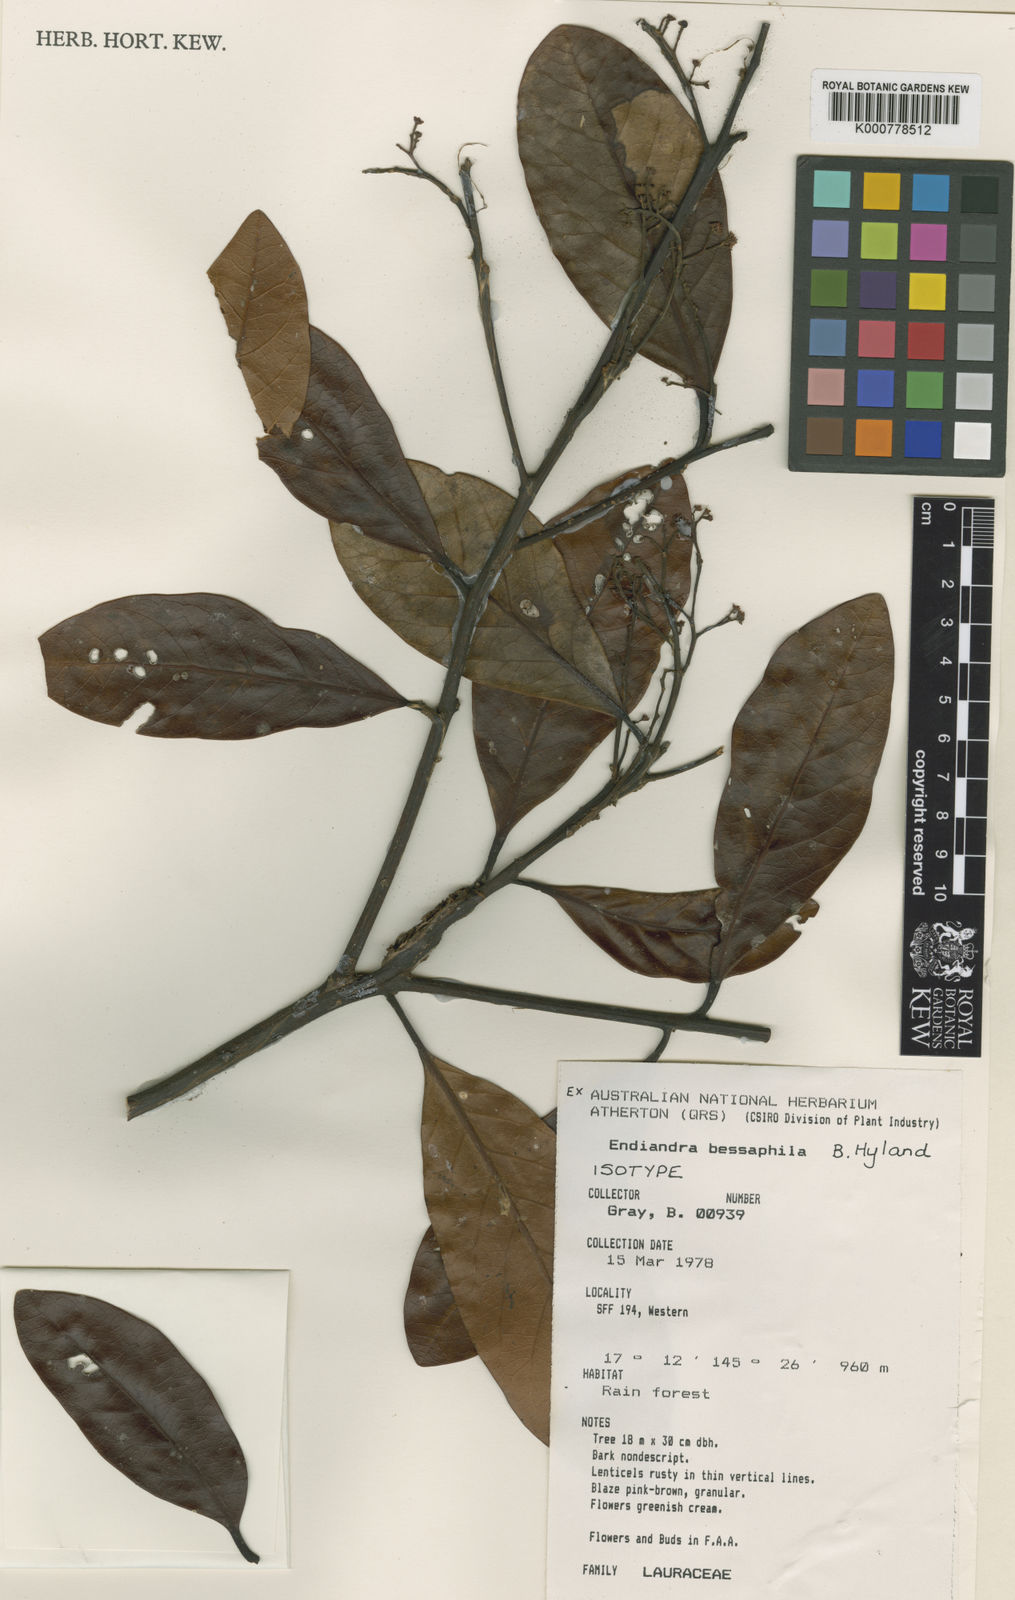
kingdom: Plantae
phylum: Tracheophyta
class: Magnoliopsida
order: Laurales
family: Lauraceae
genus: Endiandra
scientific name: Endiandra bessaphila
